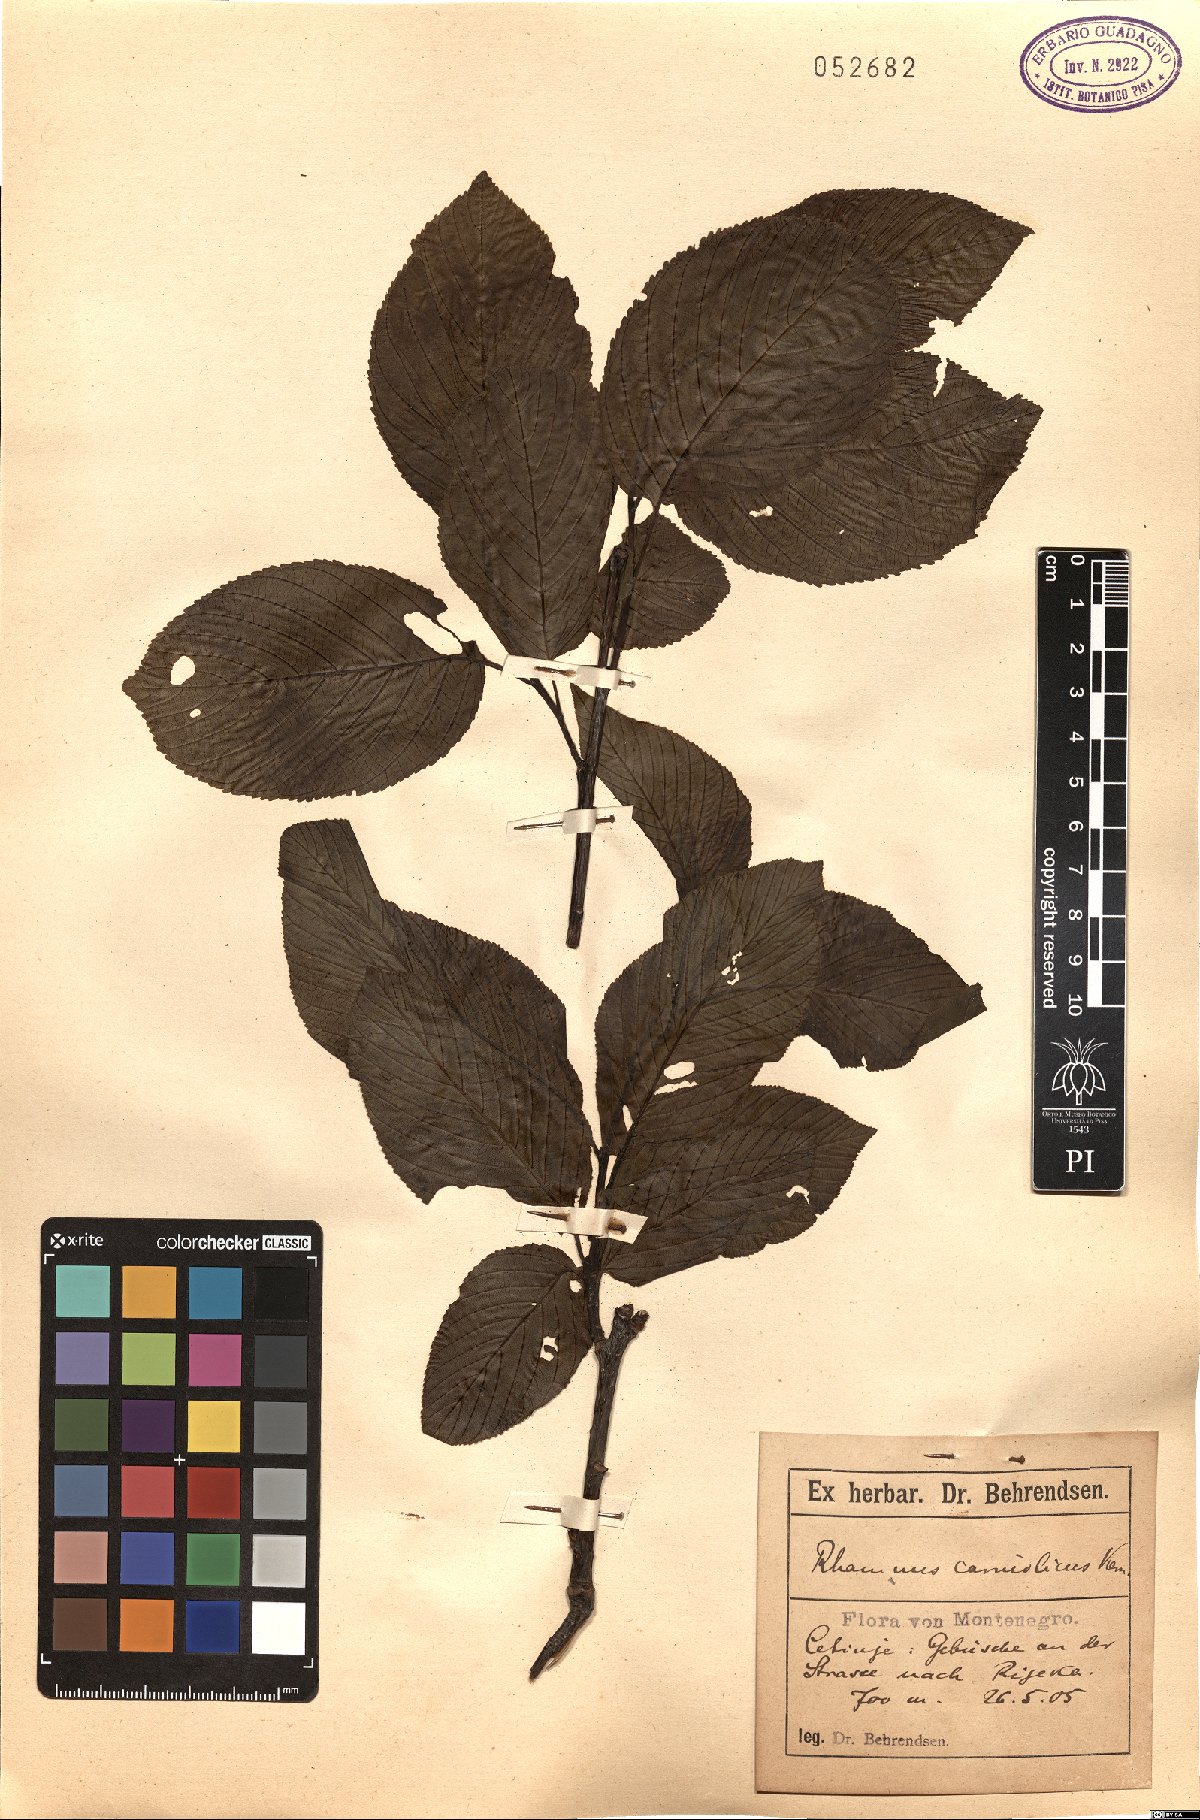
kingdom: Plantae
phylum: Tracheophyta
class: Magnoliopsida
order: Rosales
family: Rhamnaceae
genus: Rhamnus
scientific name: Rhamnus saxatilis
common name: Rock buckthorn
